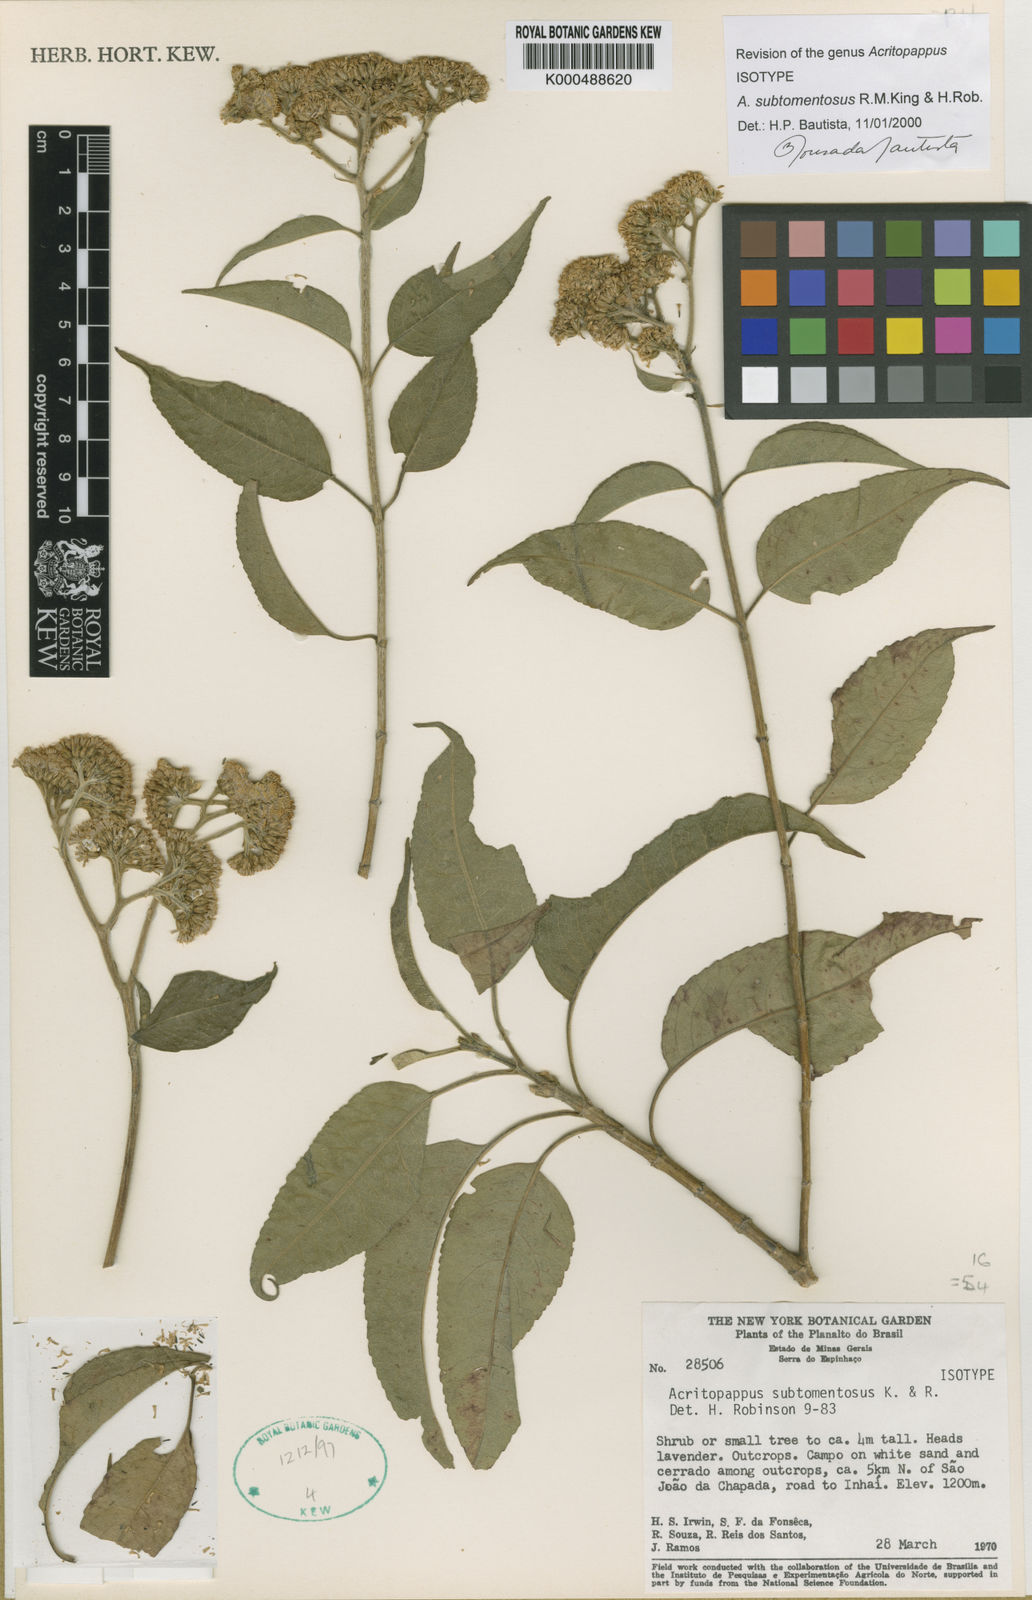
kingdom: Plantae
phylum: Tracheophyta
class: Magnoliopsida
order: Asterales
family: Asteraceae
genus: Acritopappus
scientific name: Acritopappus subtomentosus
